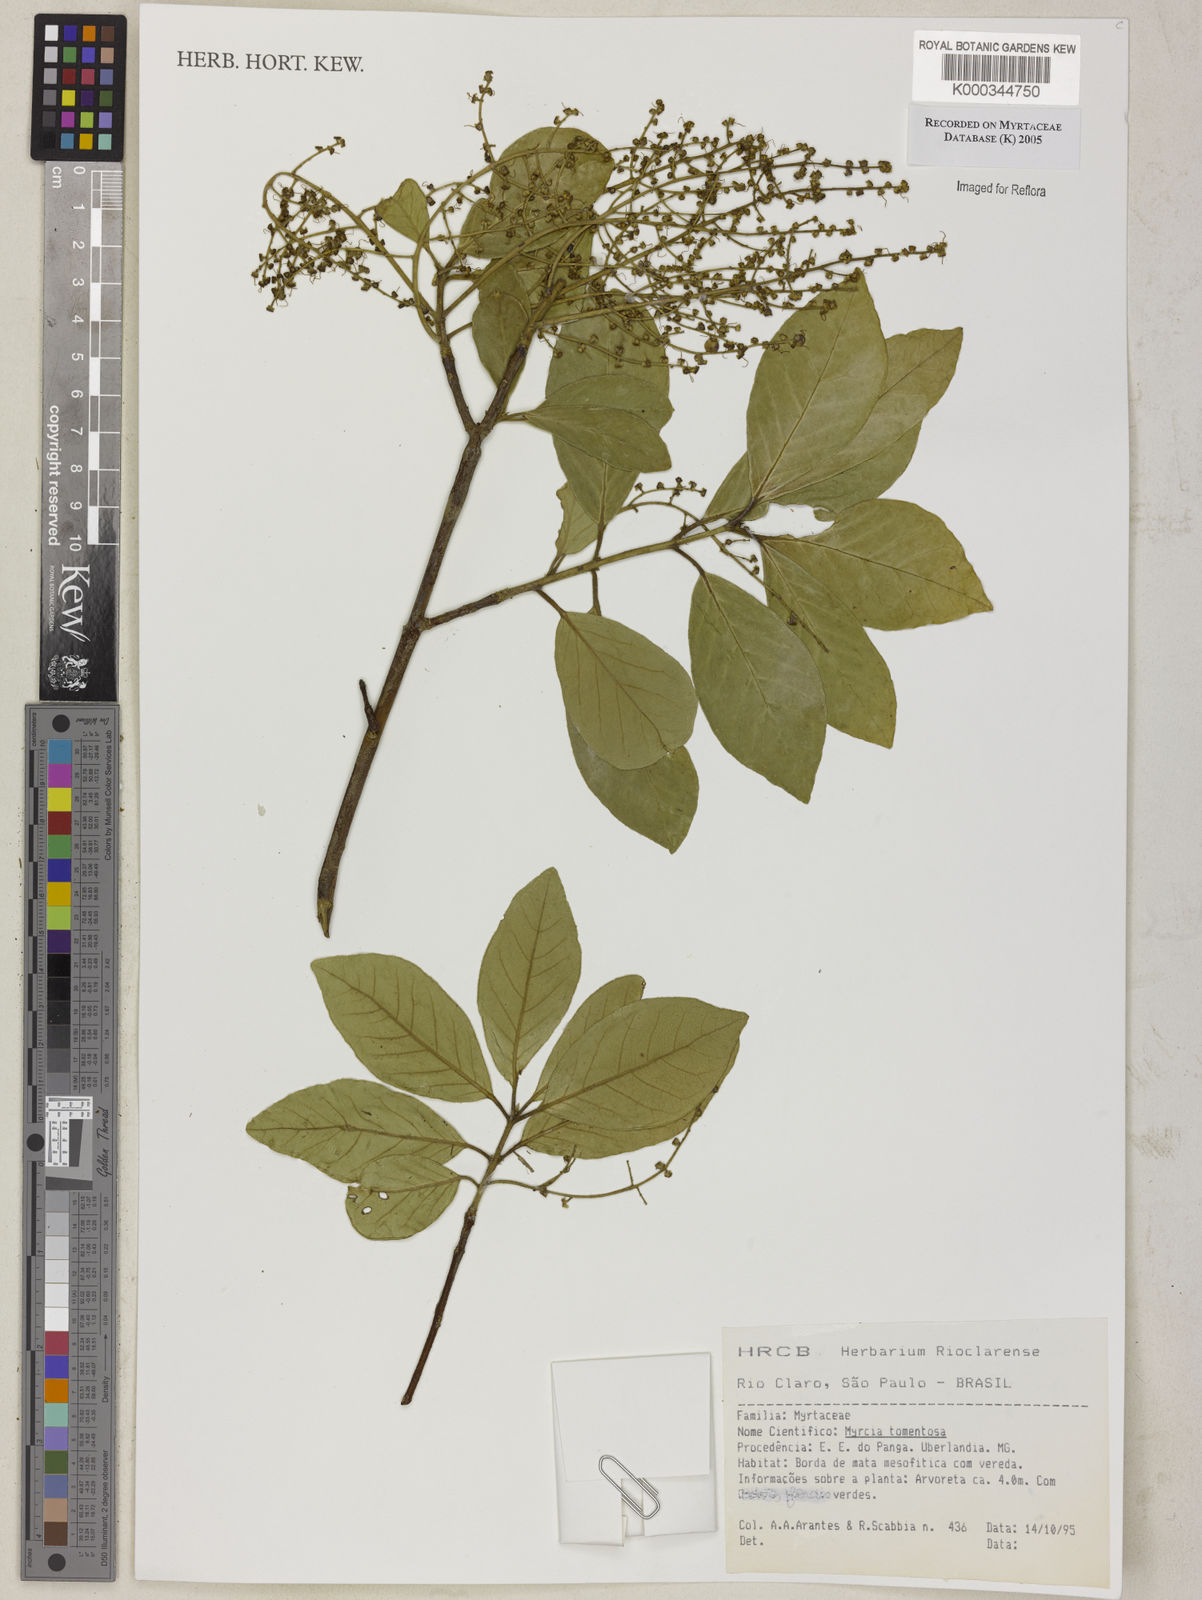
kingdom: Plantae
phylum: Tracheophyta
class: Magnoliopsida
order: Myrtales
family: Myrtaceae
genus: Myrcia
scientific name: Myrcia tomentosa
